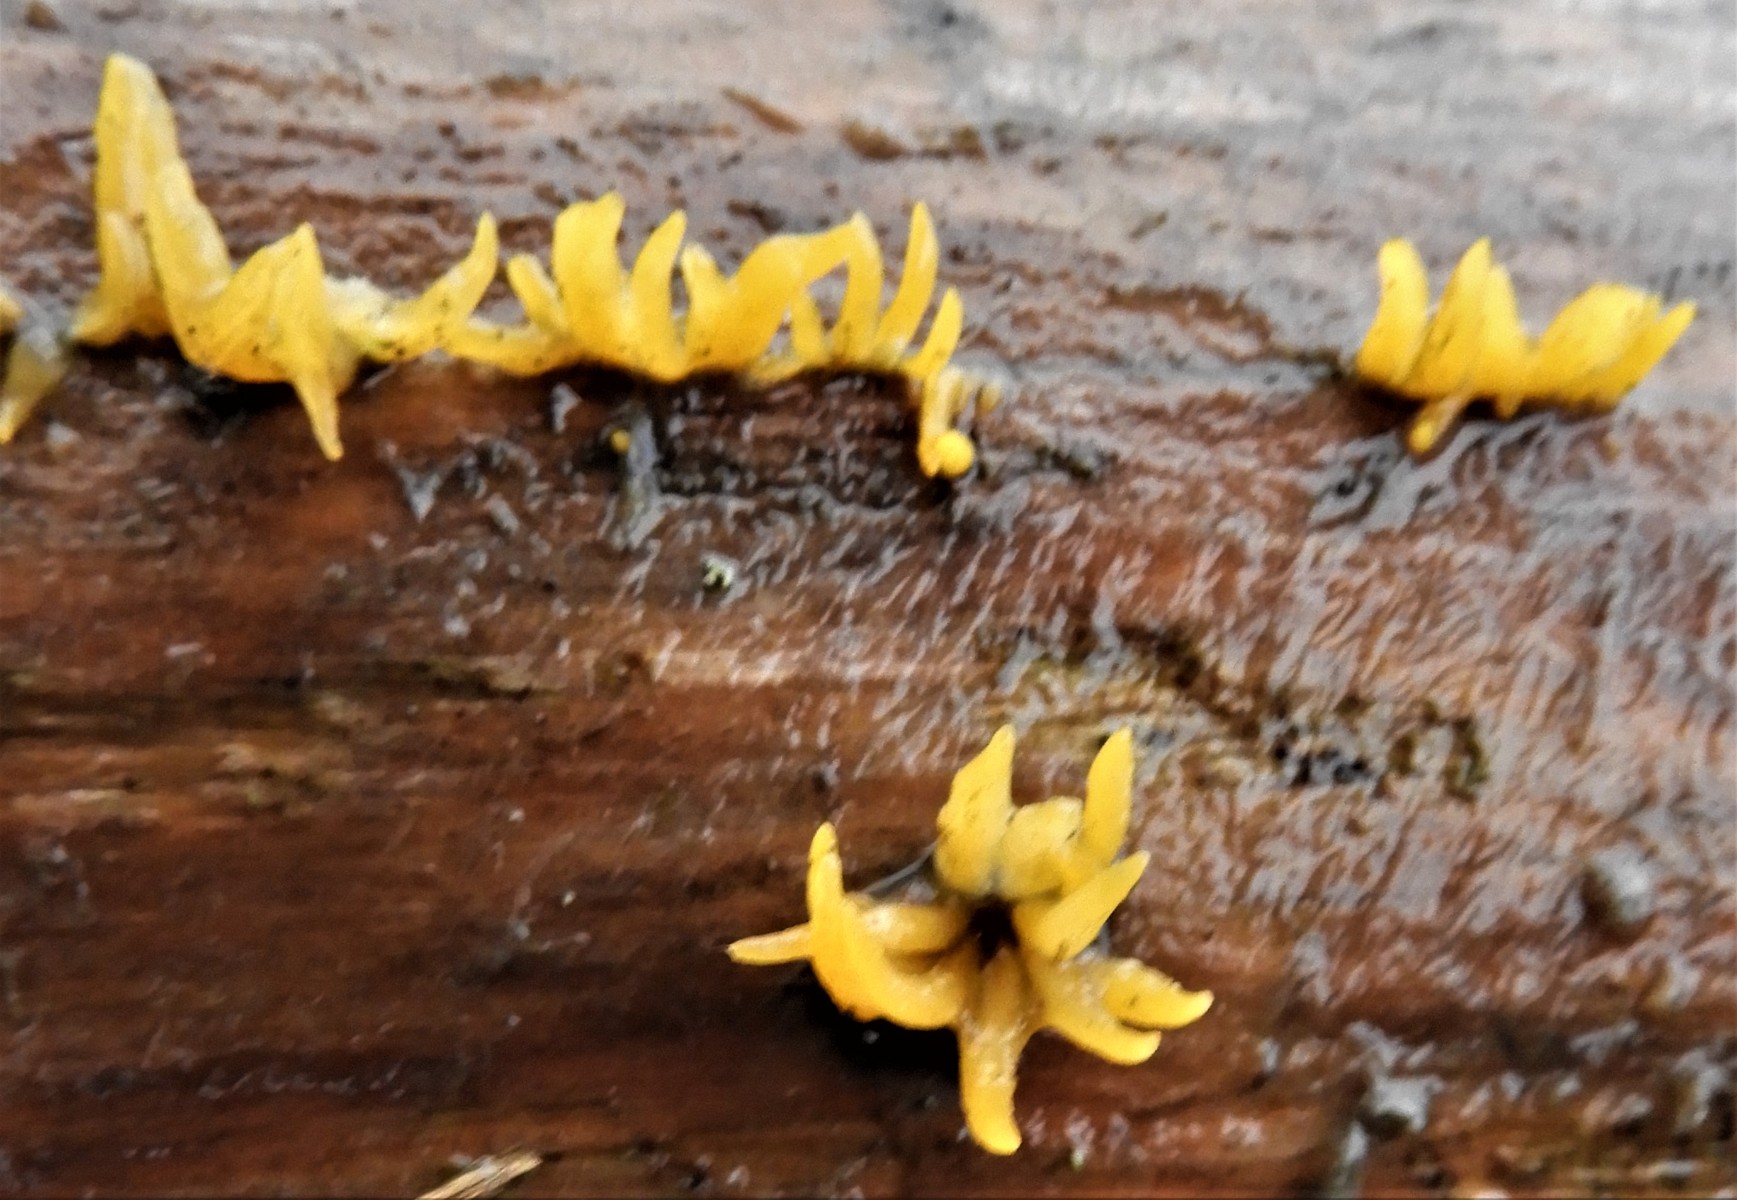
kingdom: Fungi
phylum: Basidiomycota
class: Dacrymycetes
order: Dacrymycetales
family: Dacrymycetaceae
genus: Calocera
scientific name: Calocera cornea
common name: liden guldgaffel
